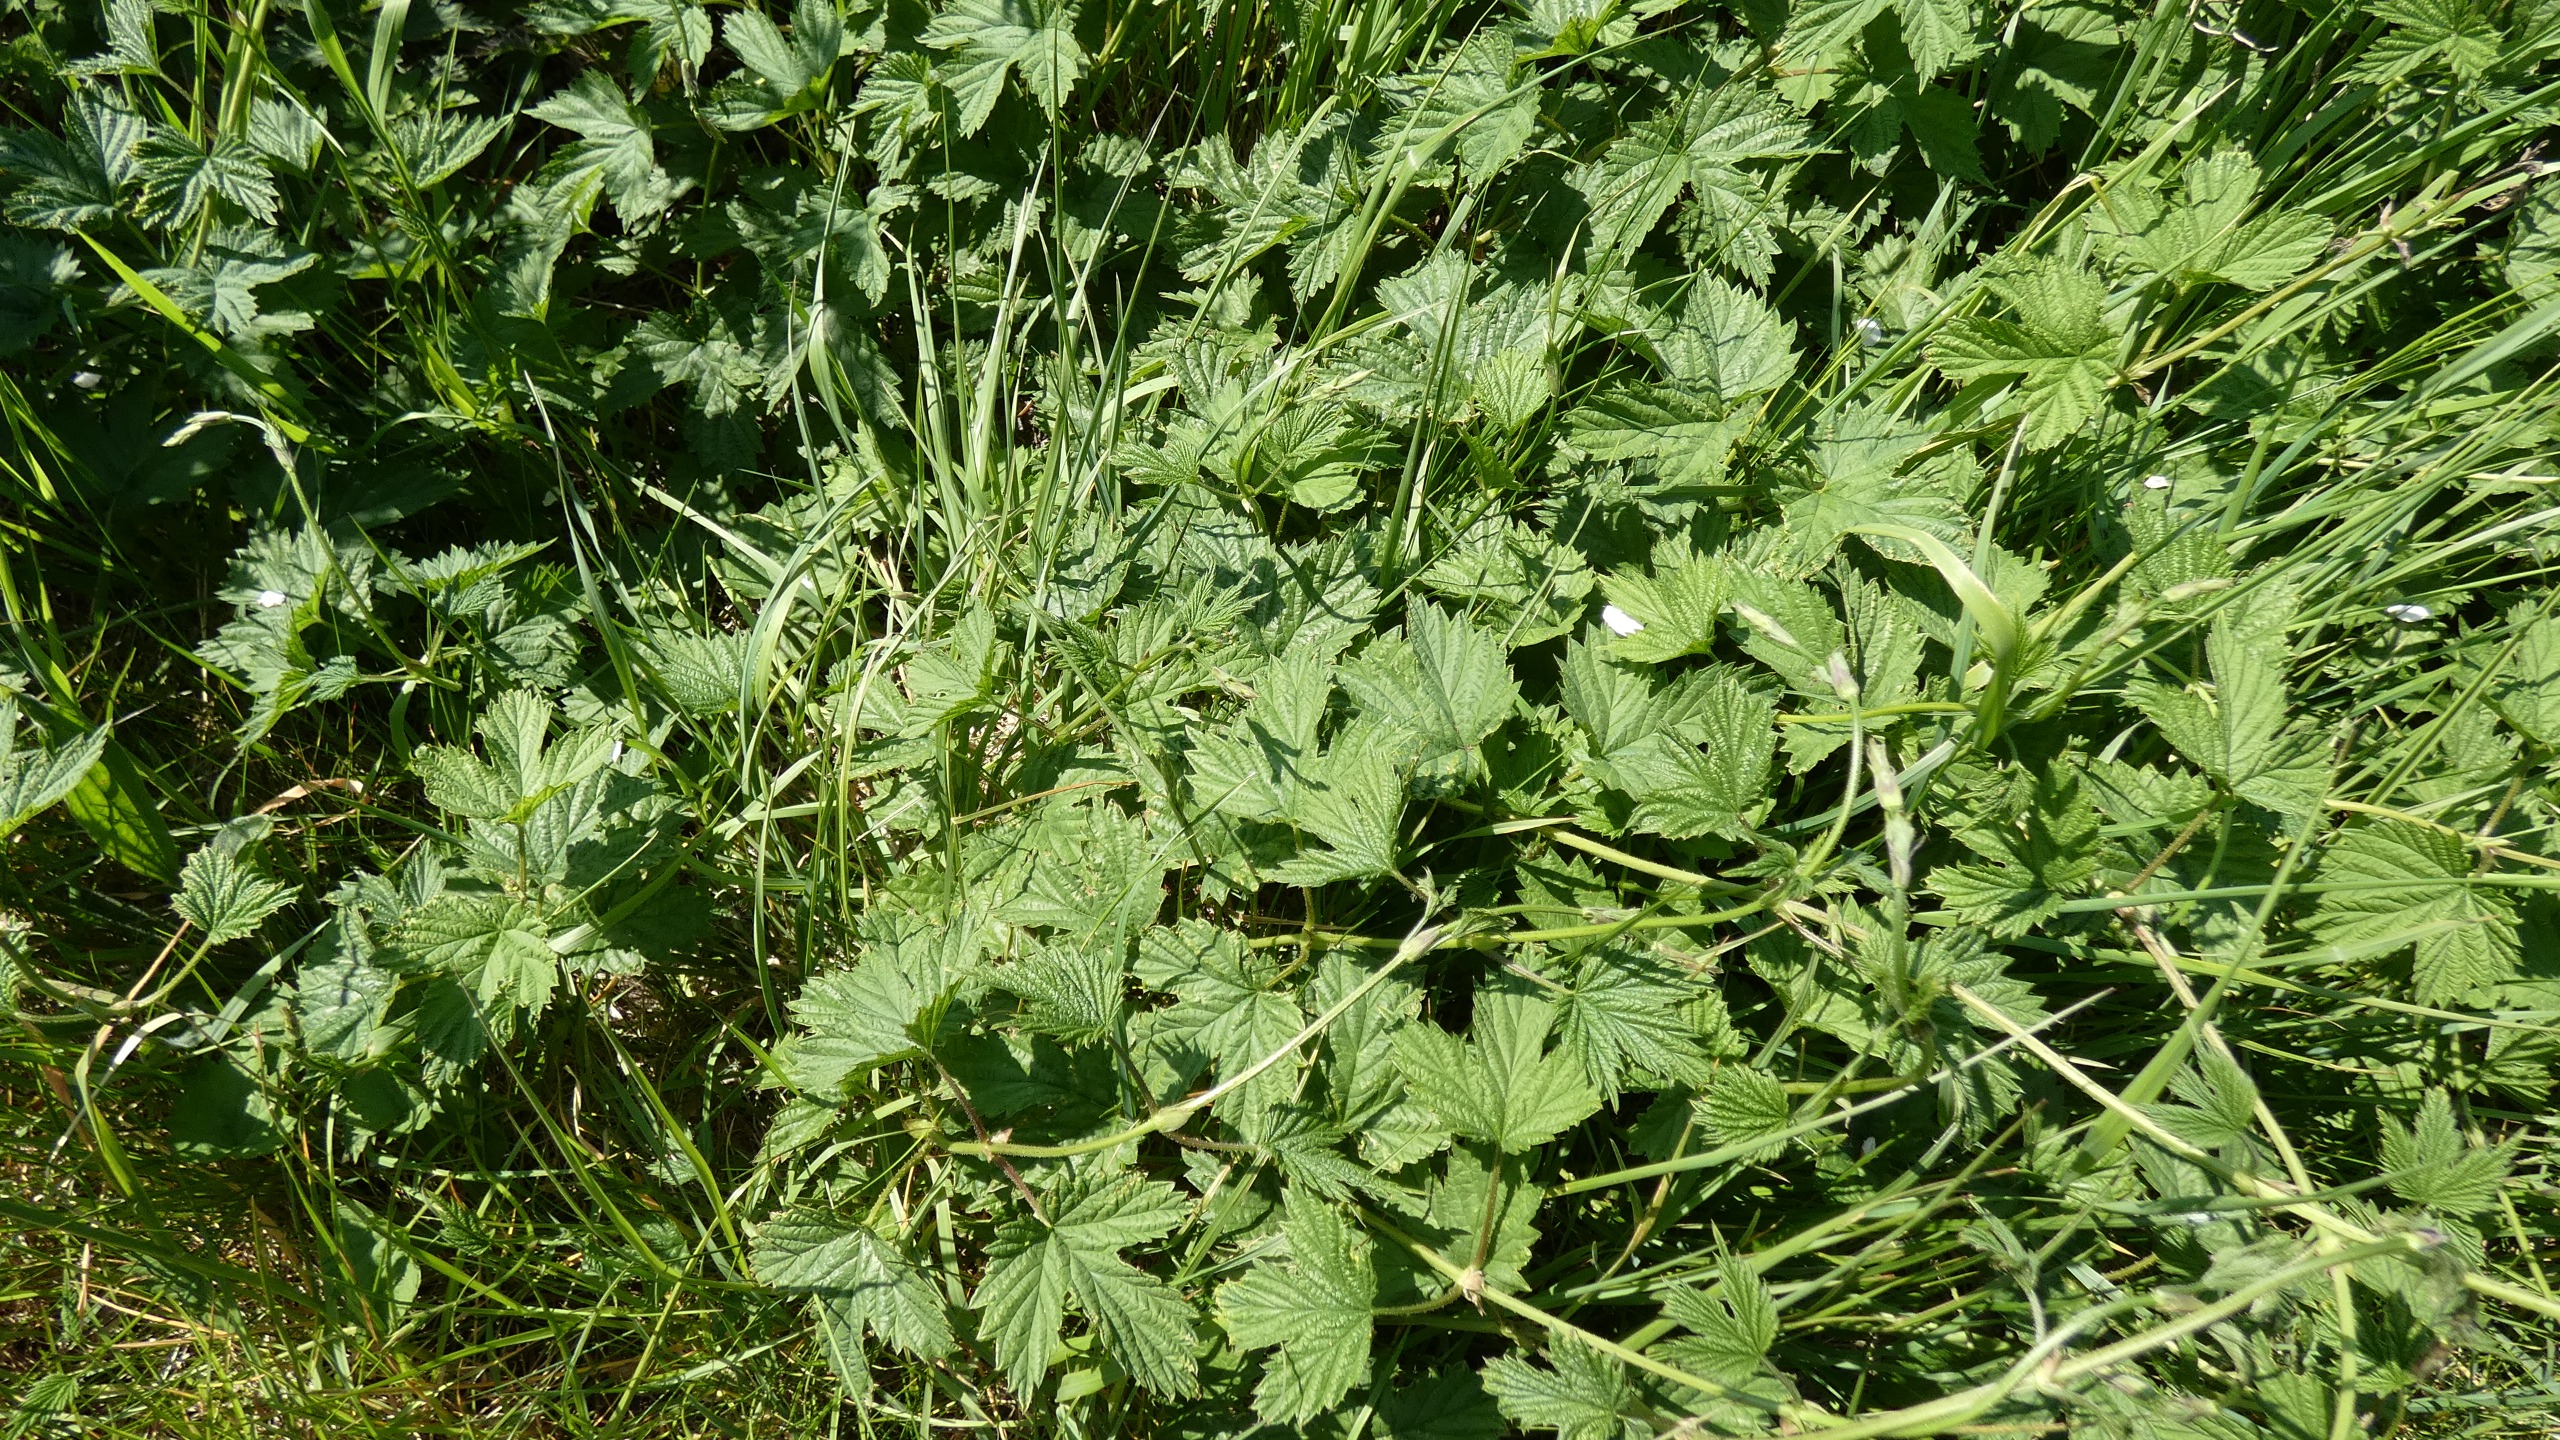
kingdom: Plantae
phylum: Tracheophyta
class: Magnoliopsida
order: Rosales
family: Cannabaceae
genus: Humulus
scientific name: Humulus lupulus
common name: Humle
